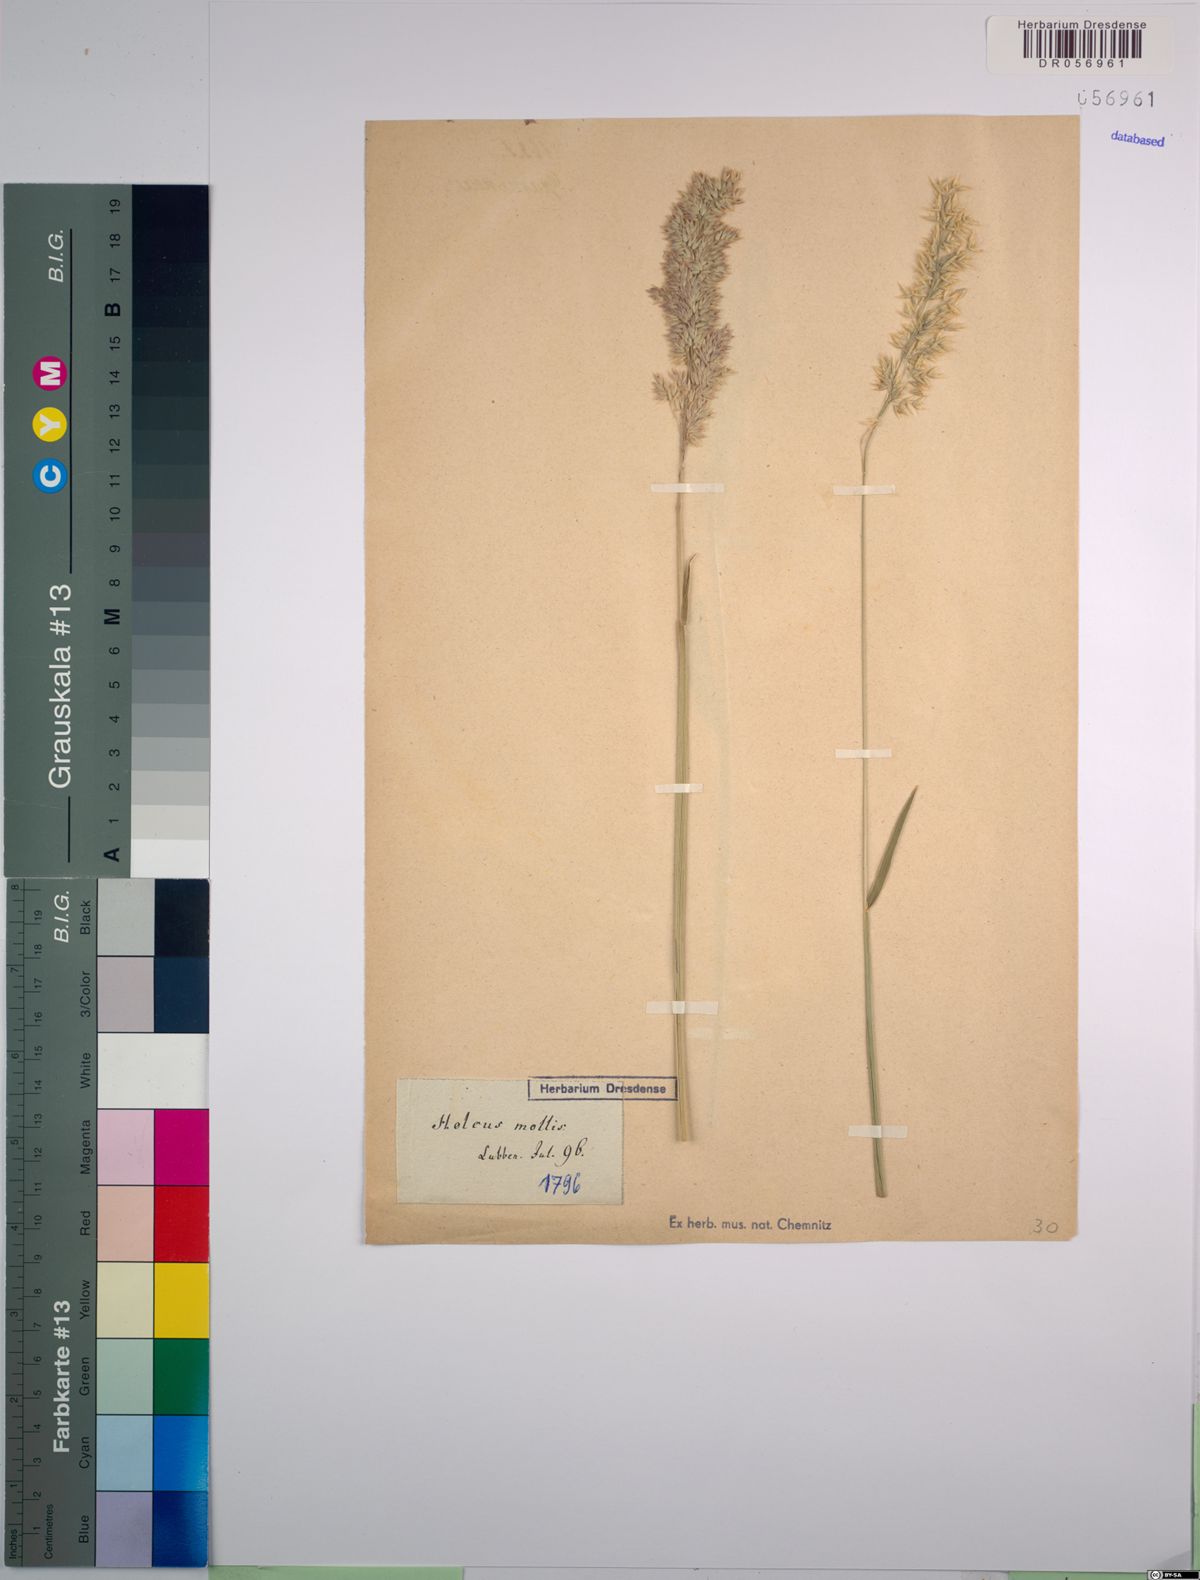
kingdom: Plantae
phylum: Tracheophyta
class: Liliopsida
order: Poales
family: Poaceae
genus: Holcus
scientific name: Holcus mollis
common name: Creeping velvetgrass
